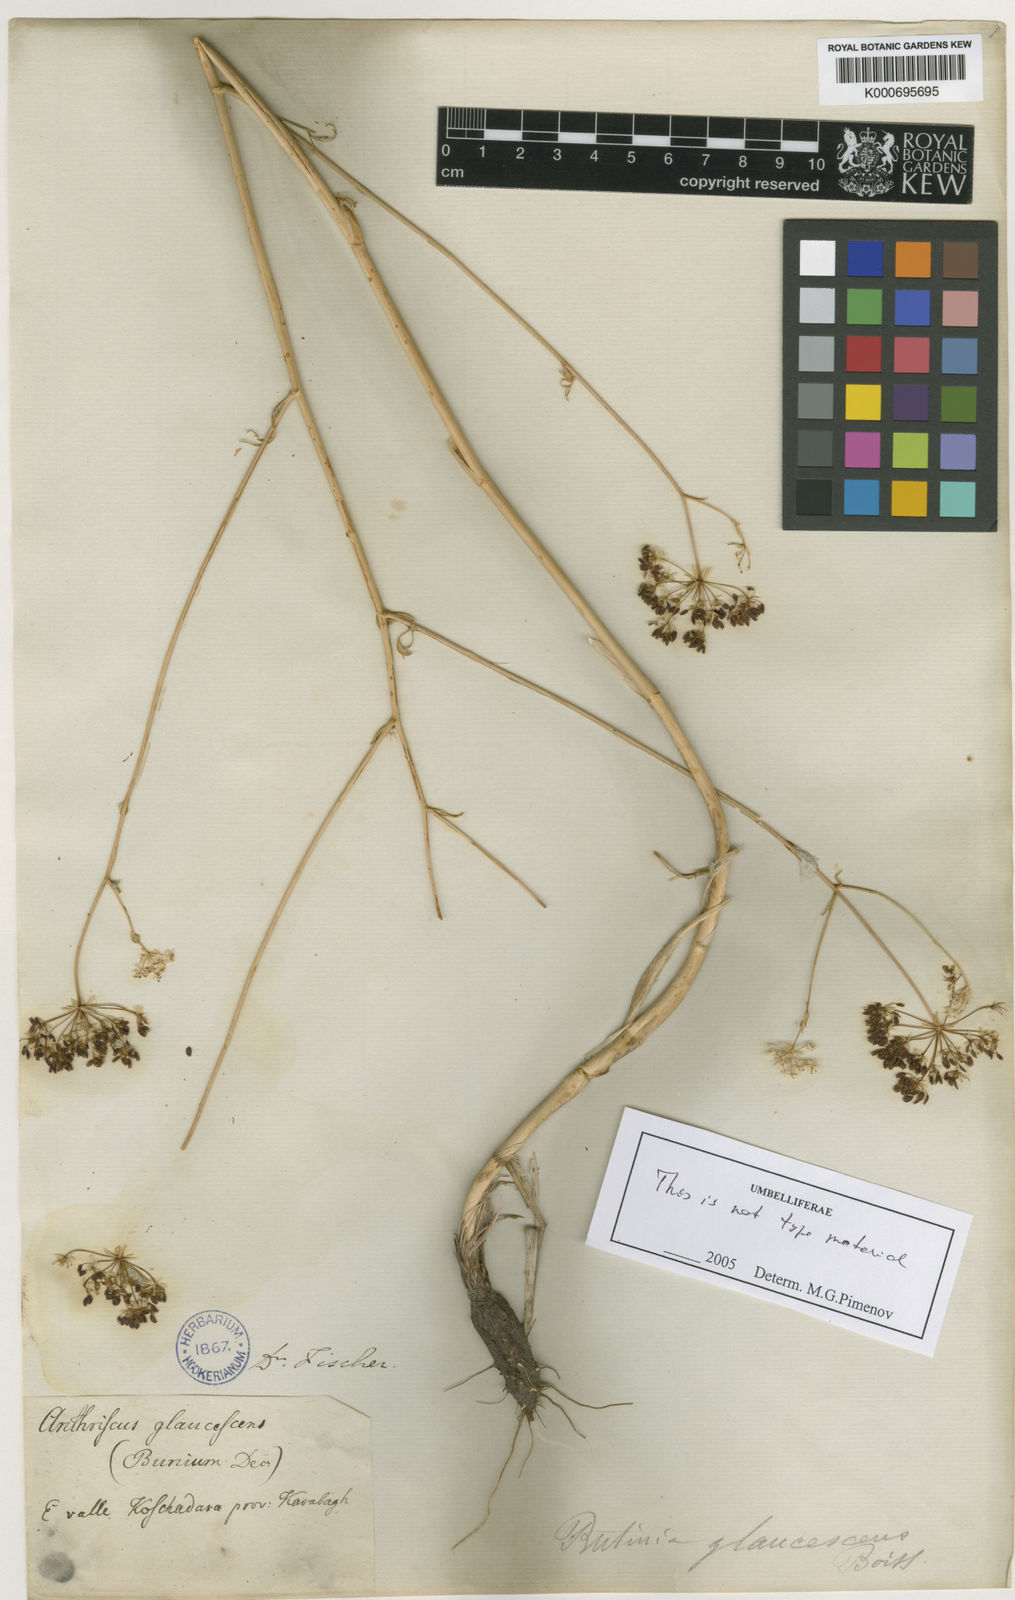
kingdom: Plantae
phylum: Tracheophyta
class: Magnoliopsida
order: Apiales
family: Apiaceae
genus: Scaligeria
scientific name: Scaligeria glaucescens
